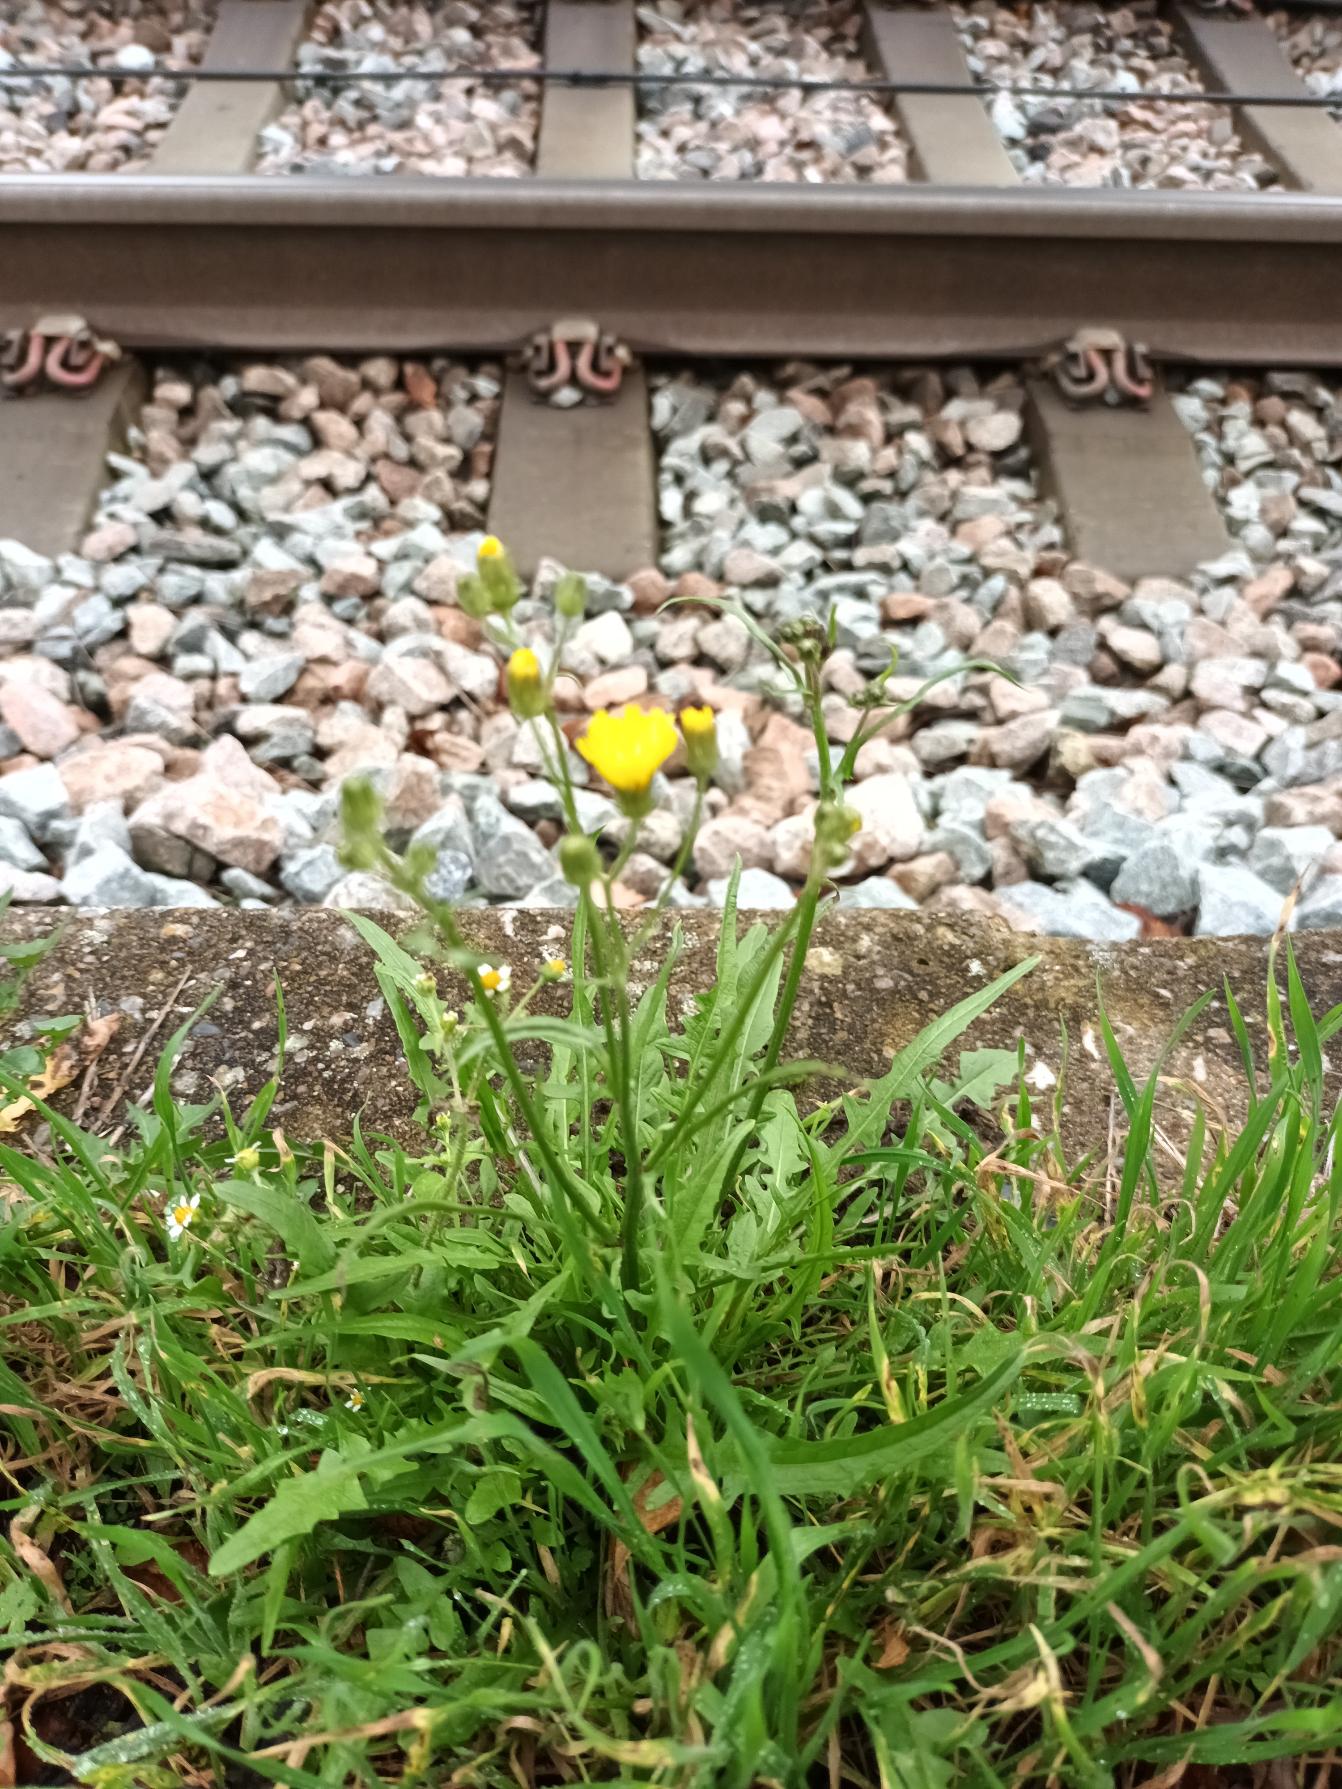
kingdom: Plantae
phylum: Tracheophyta
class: Magnoliopsida
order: Asterales
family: Asteraceae
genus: Crepis
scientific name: Crepis capillaris
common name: Grøn høgeskæg
